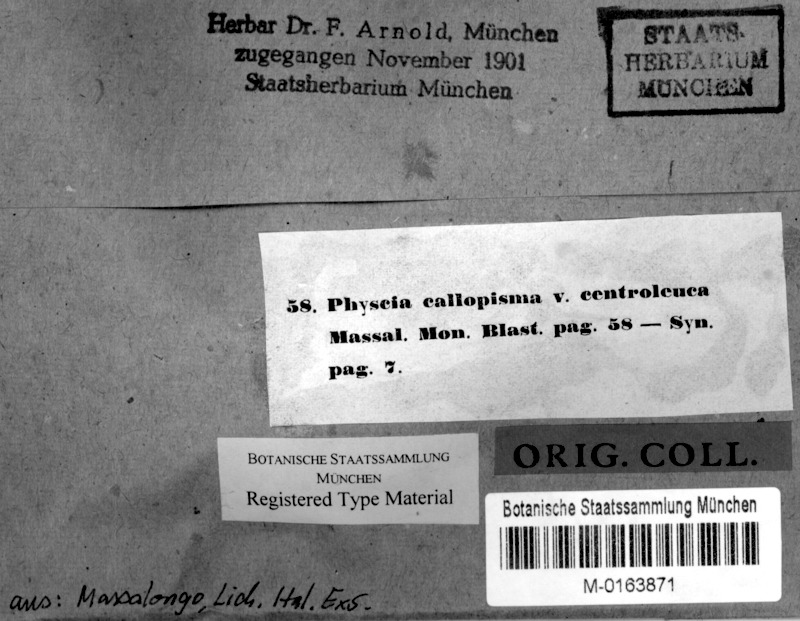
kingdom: Fungi
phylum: Ascomycota
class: Lecanoromycetes
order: Teloschistales
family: Teloschistaceae
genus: Variospora
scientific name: Variospora flavescens
